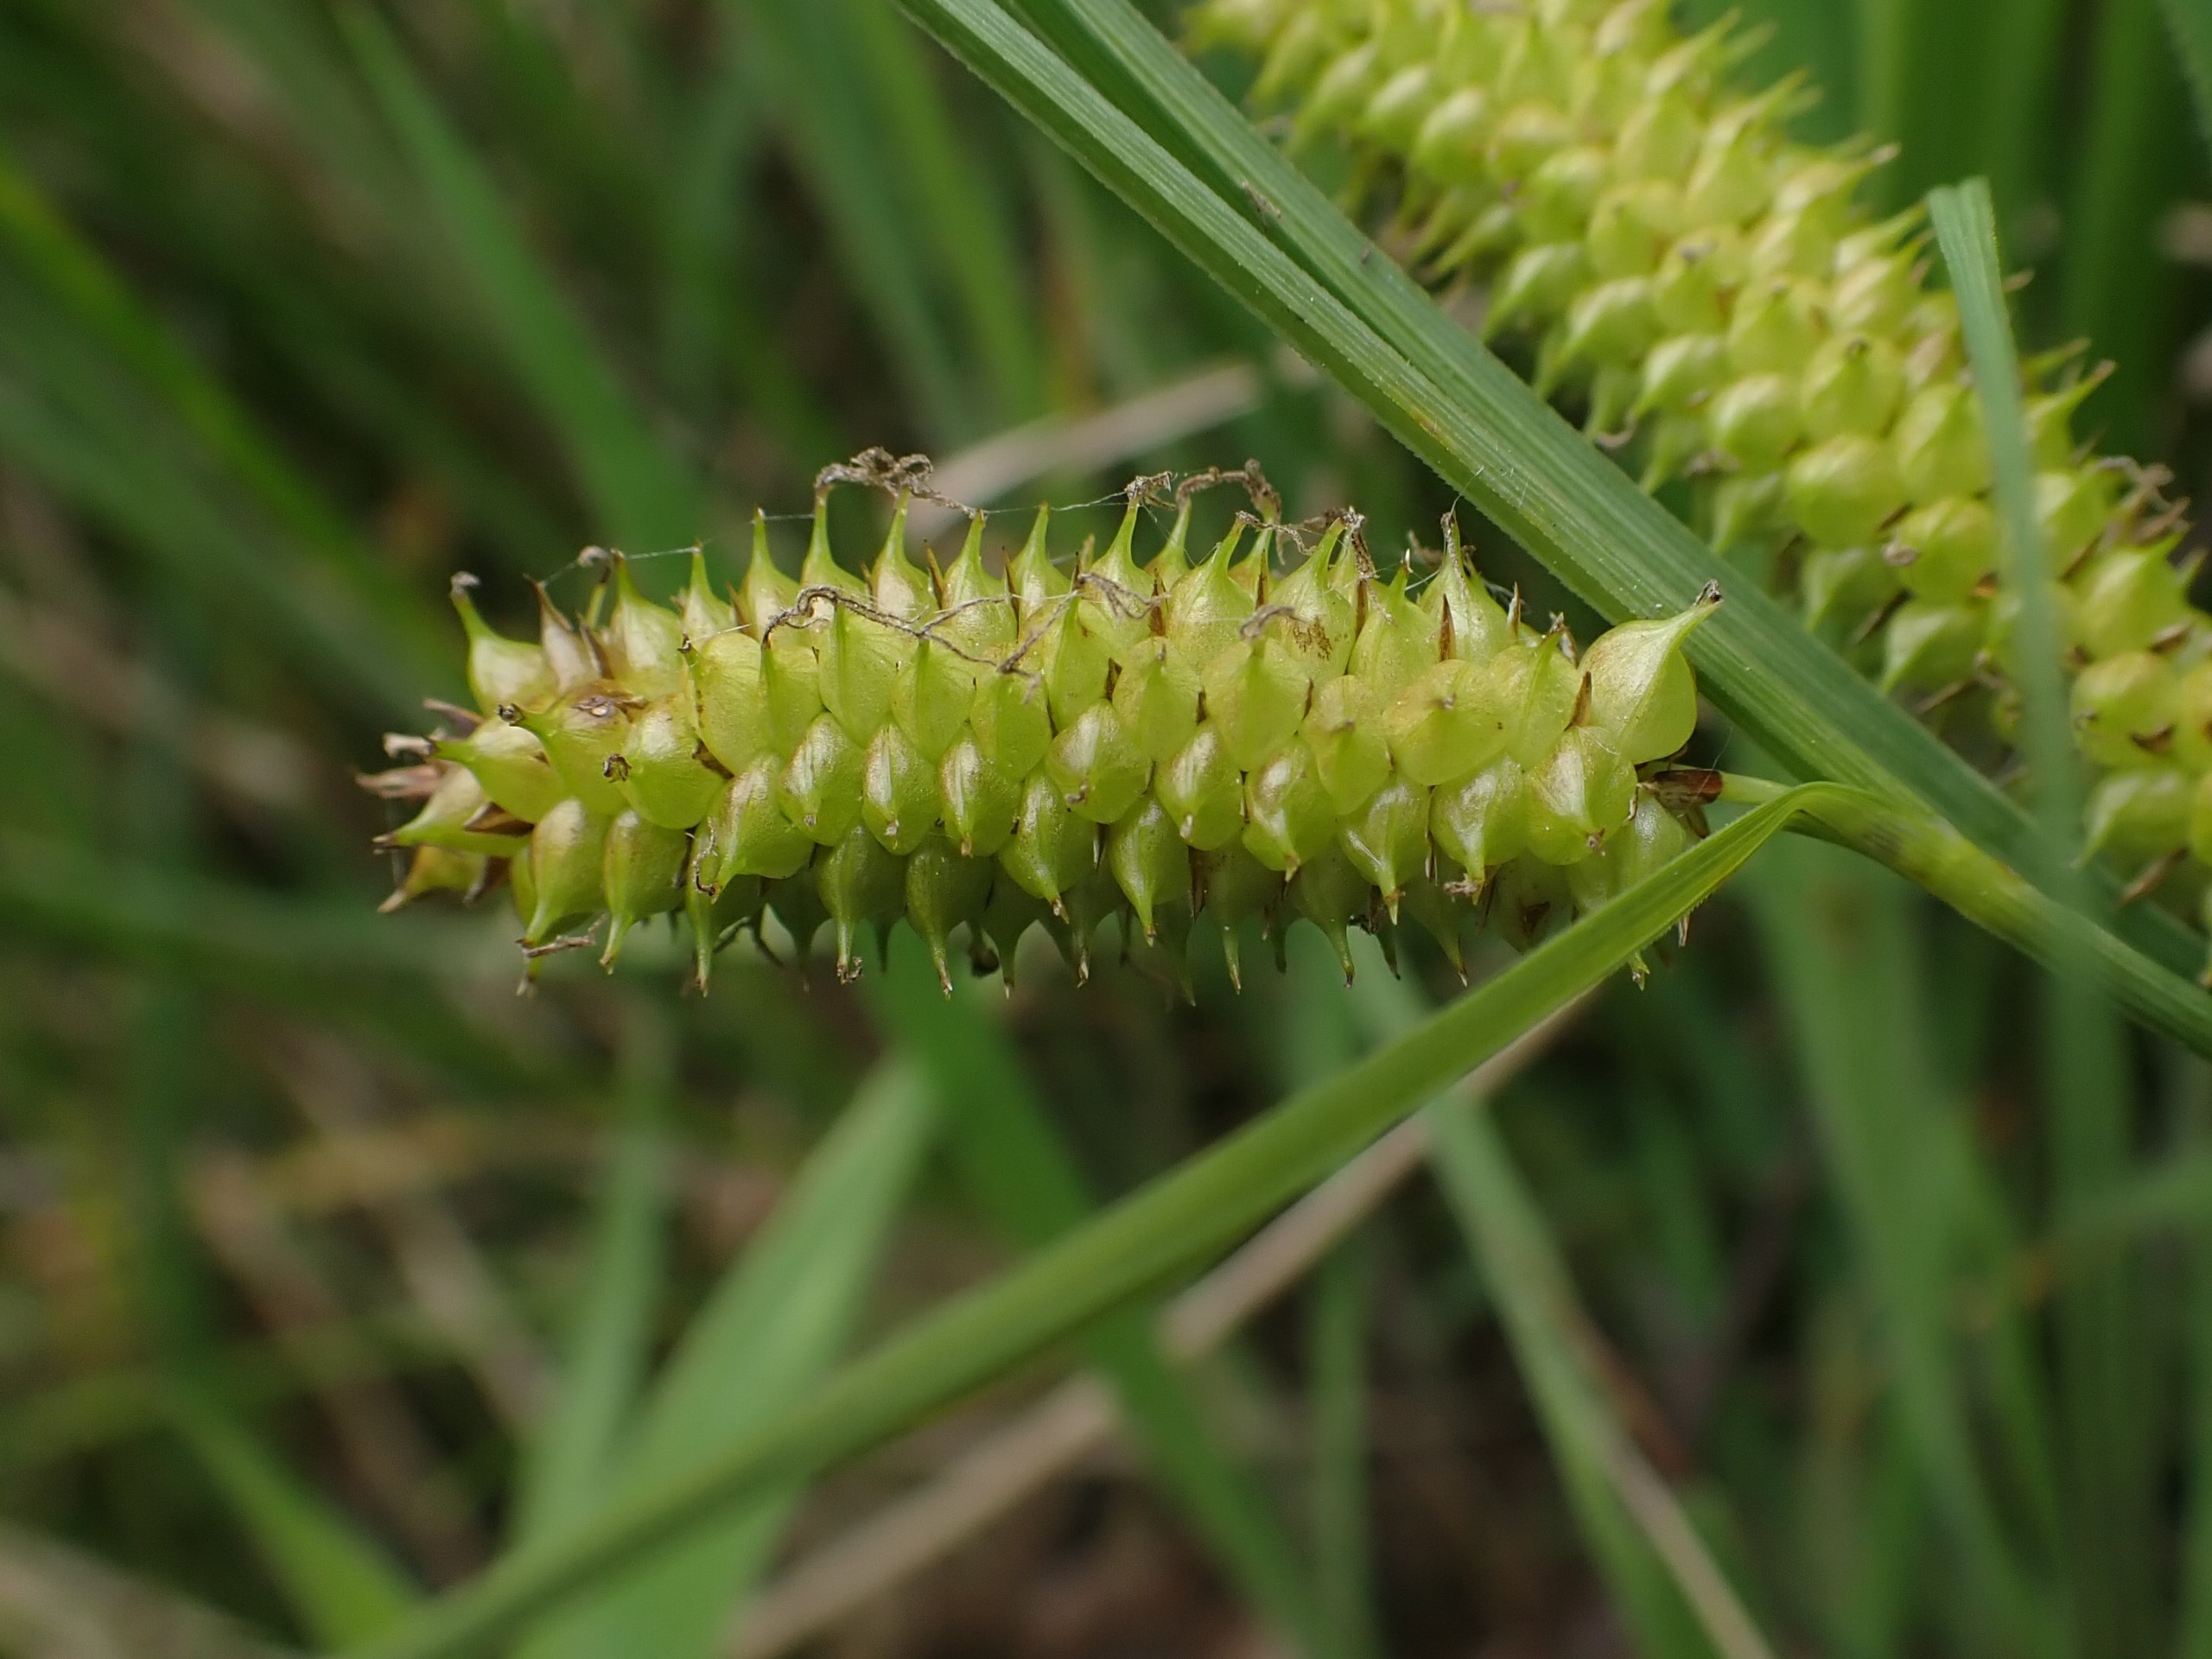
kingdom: Plantae
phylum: Tracheophyta
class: Liliopsida
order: Poales
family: Cyperaceae
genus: Carex
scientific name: Carex rostrata
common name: Næb-star
